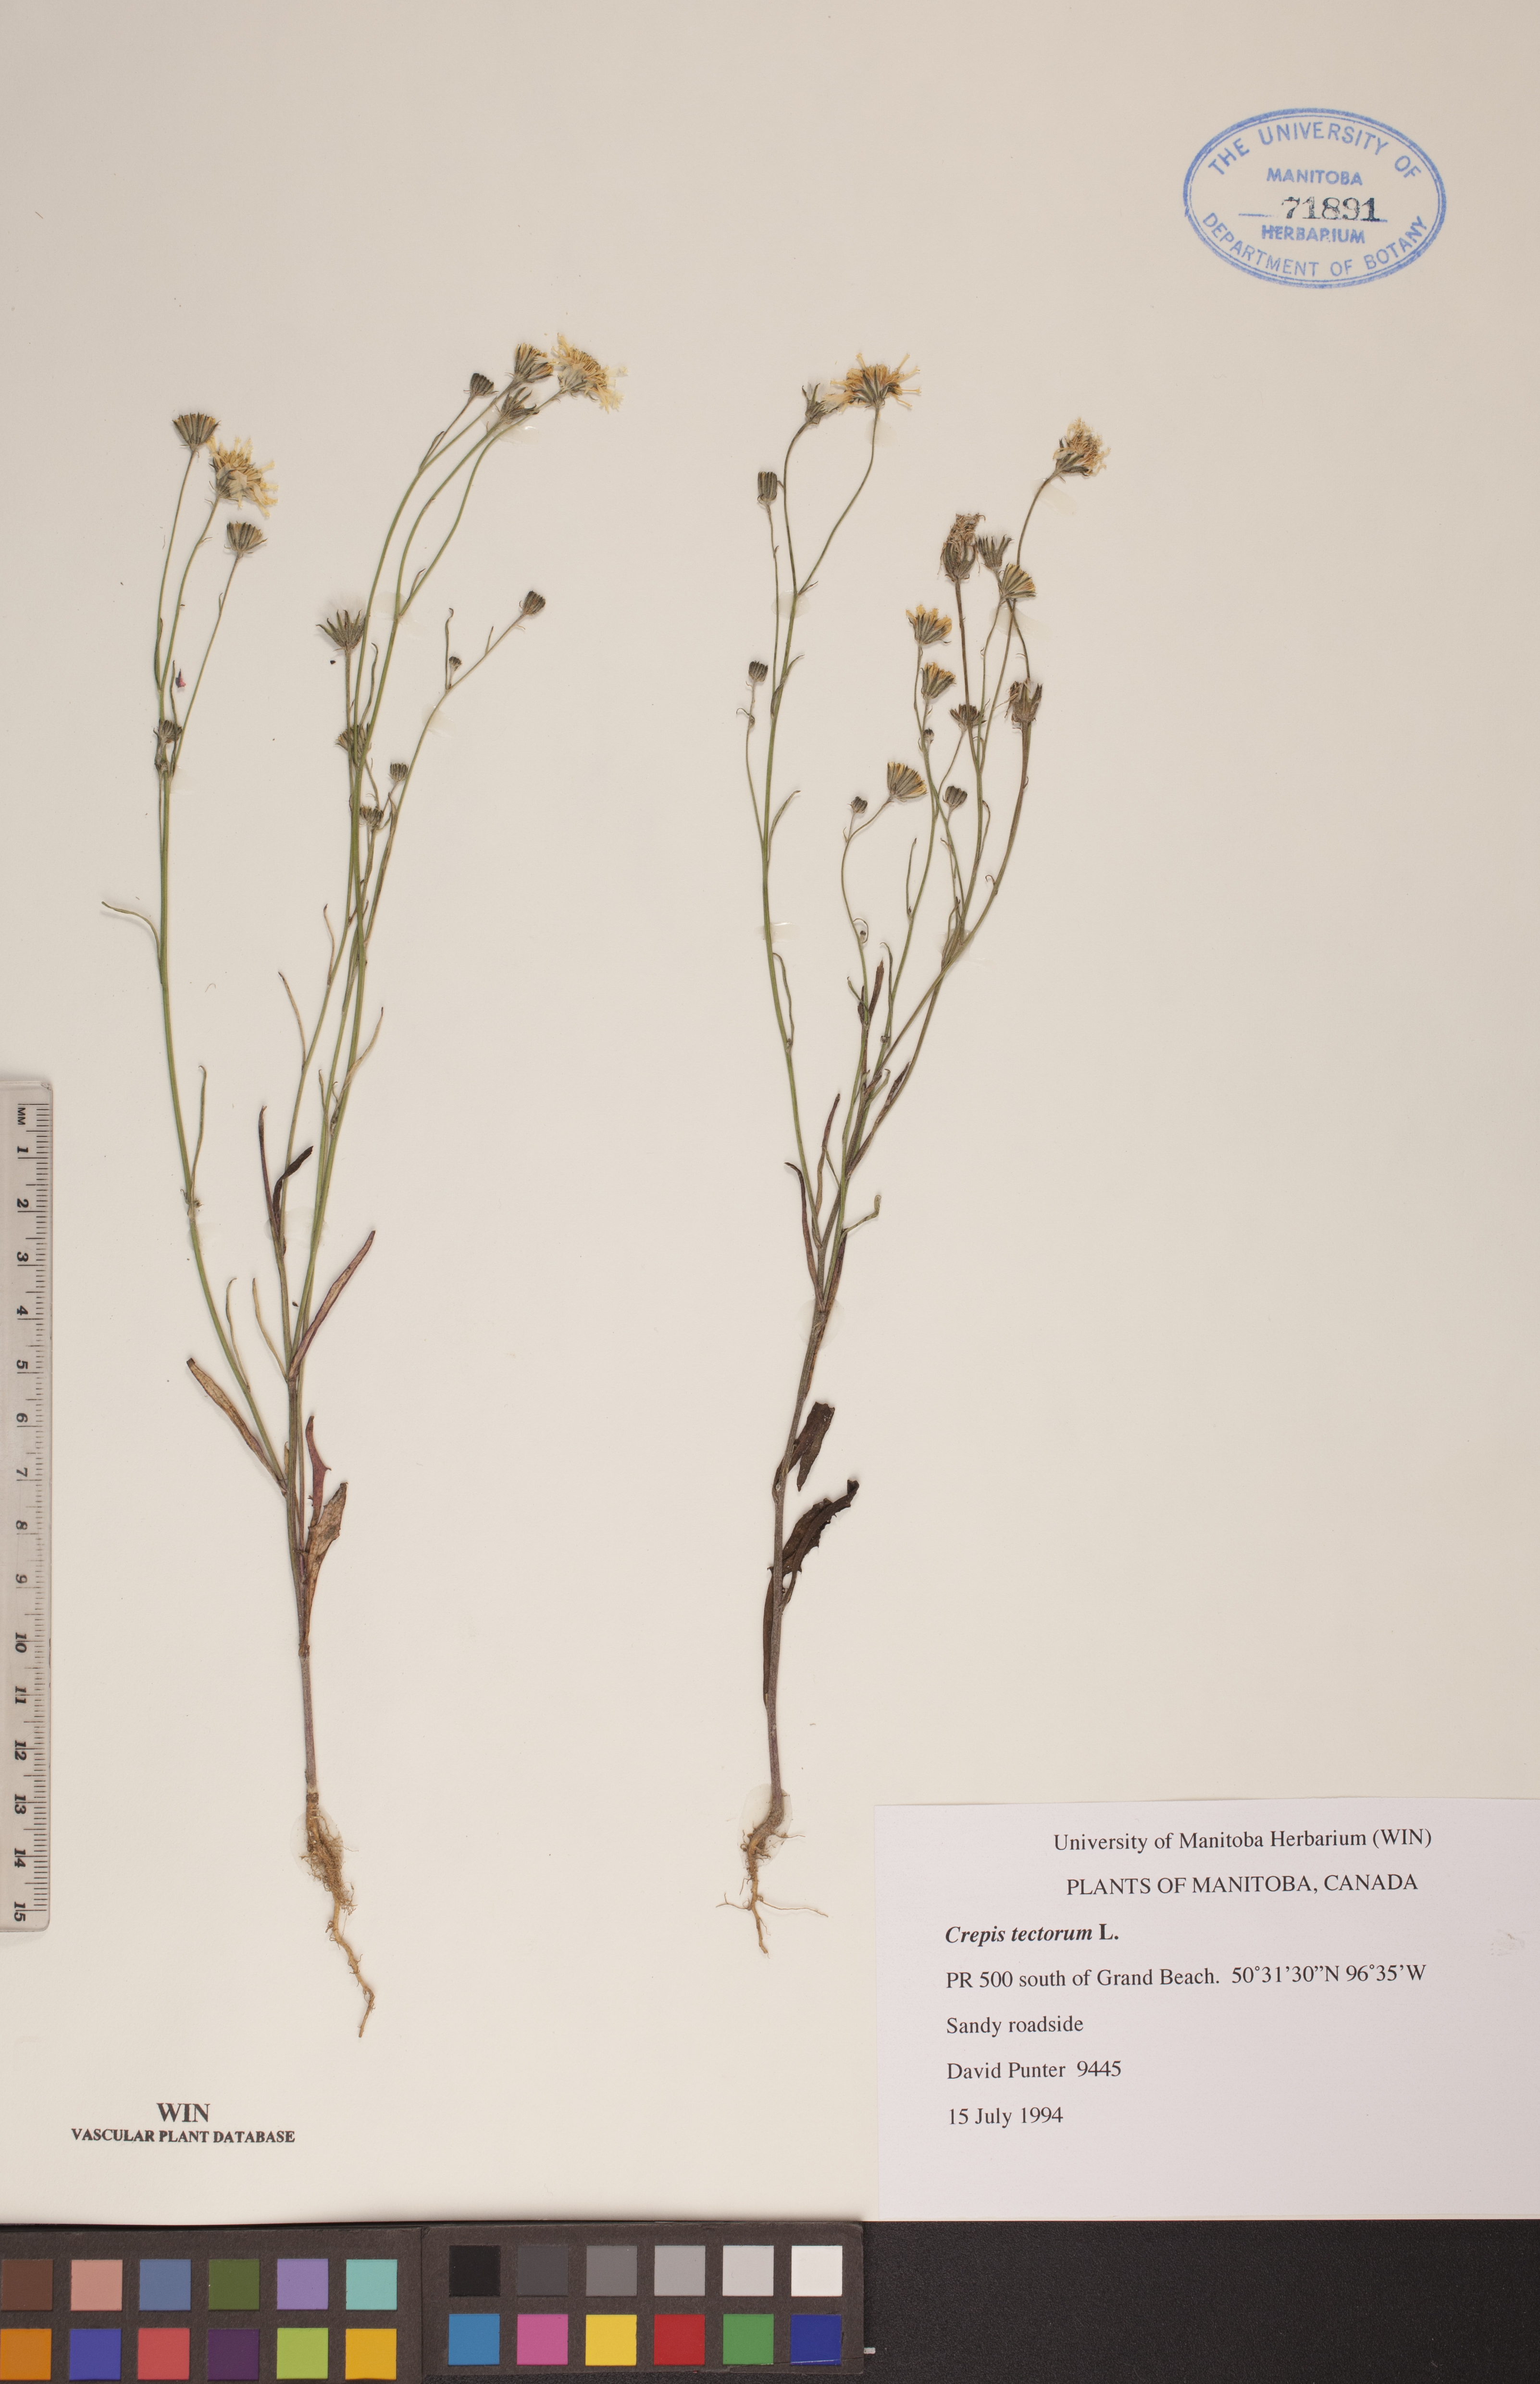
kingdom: Plantae
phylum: Tracheophyta
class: Magnoliopsida
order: Asterales
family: Asteraceae
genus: Crepis
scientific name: Crepis tectorum
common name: Narrow-leaved hawk's-beard
